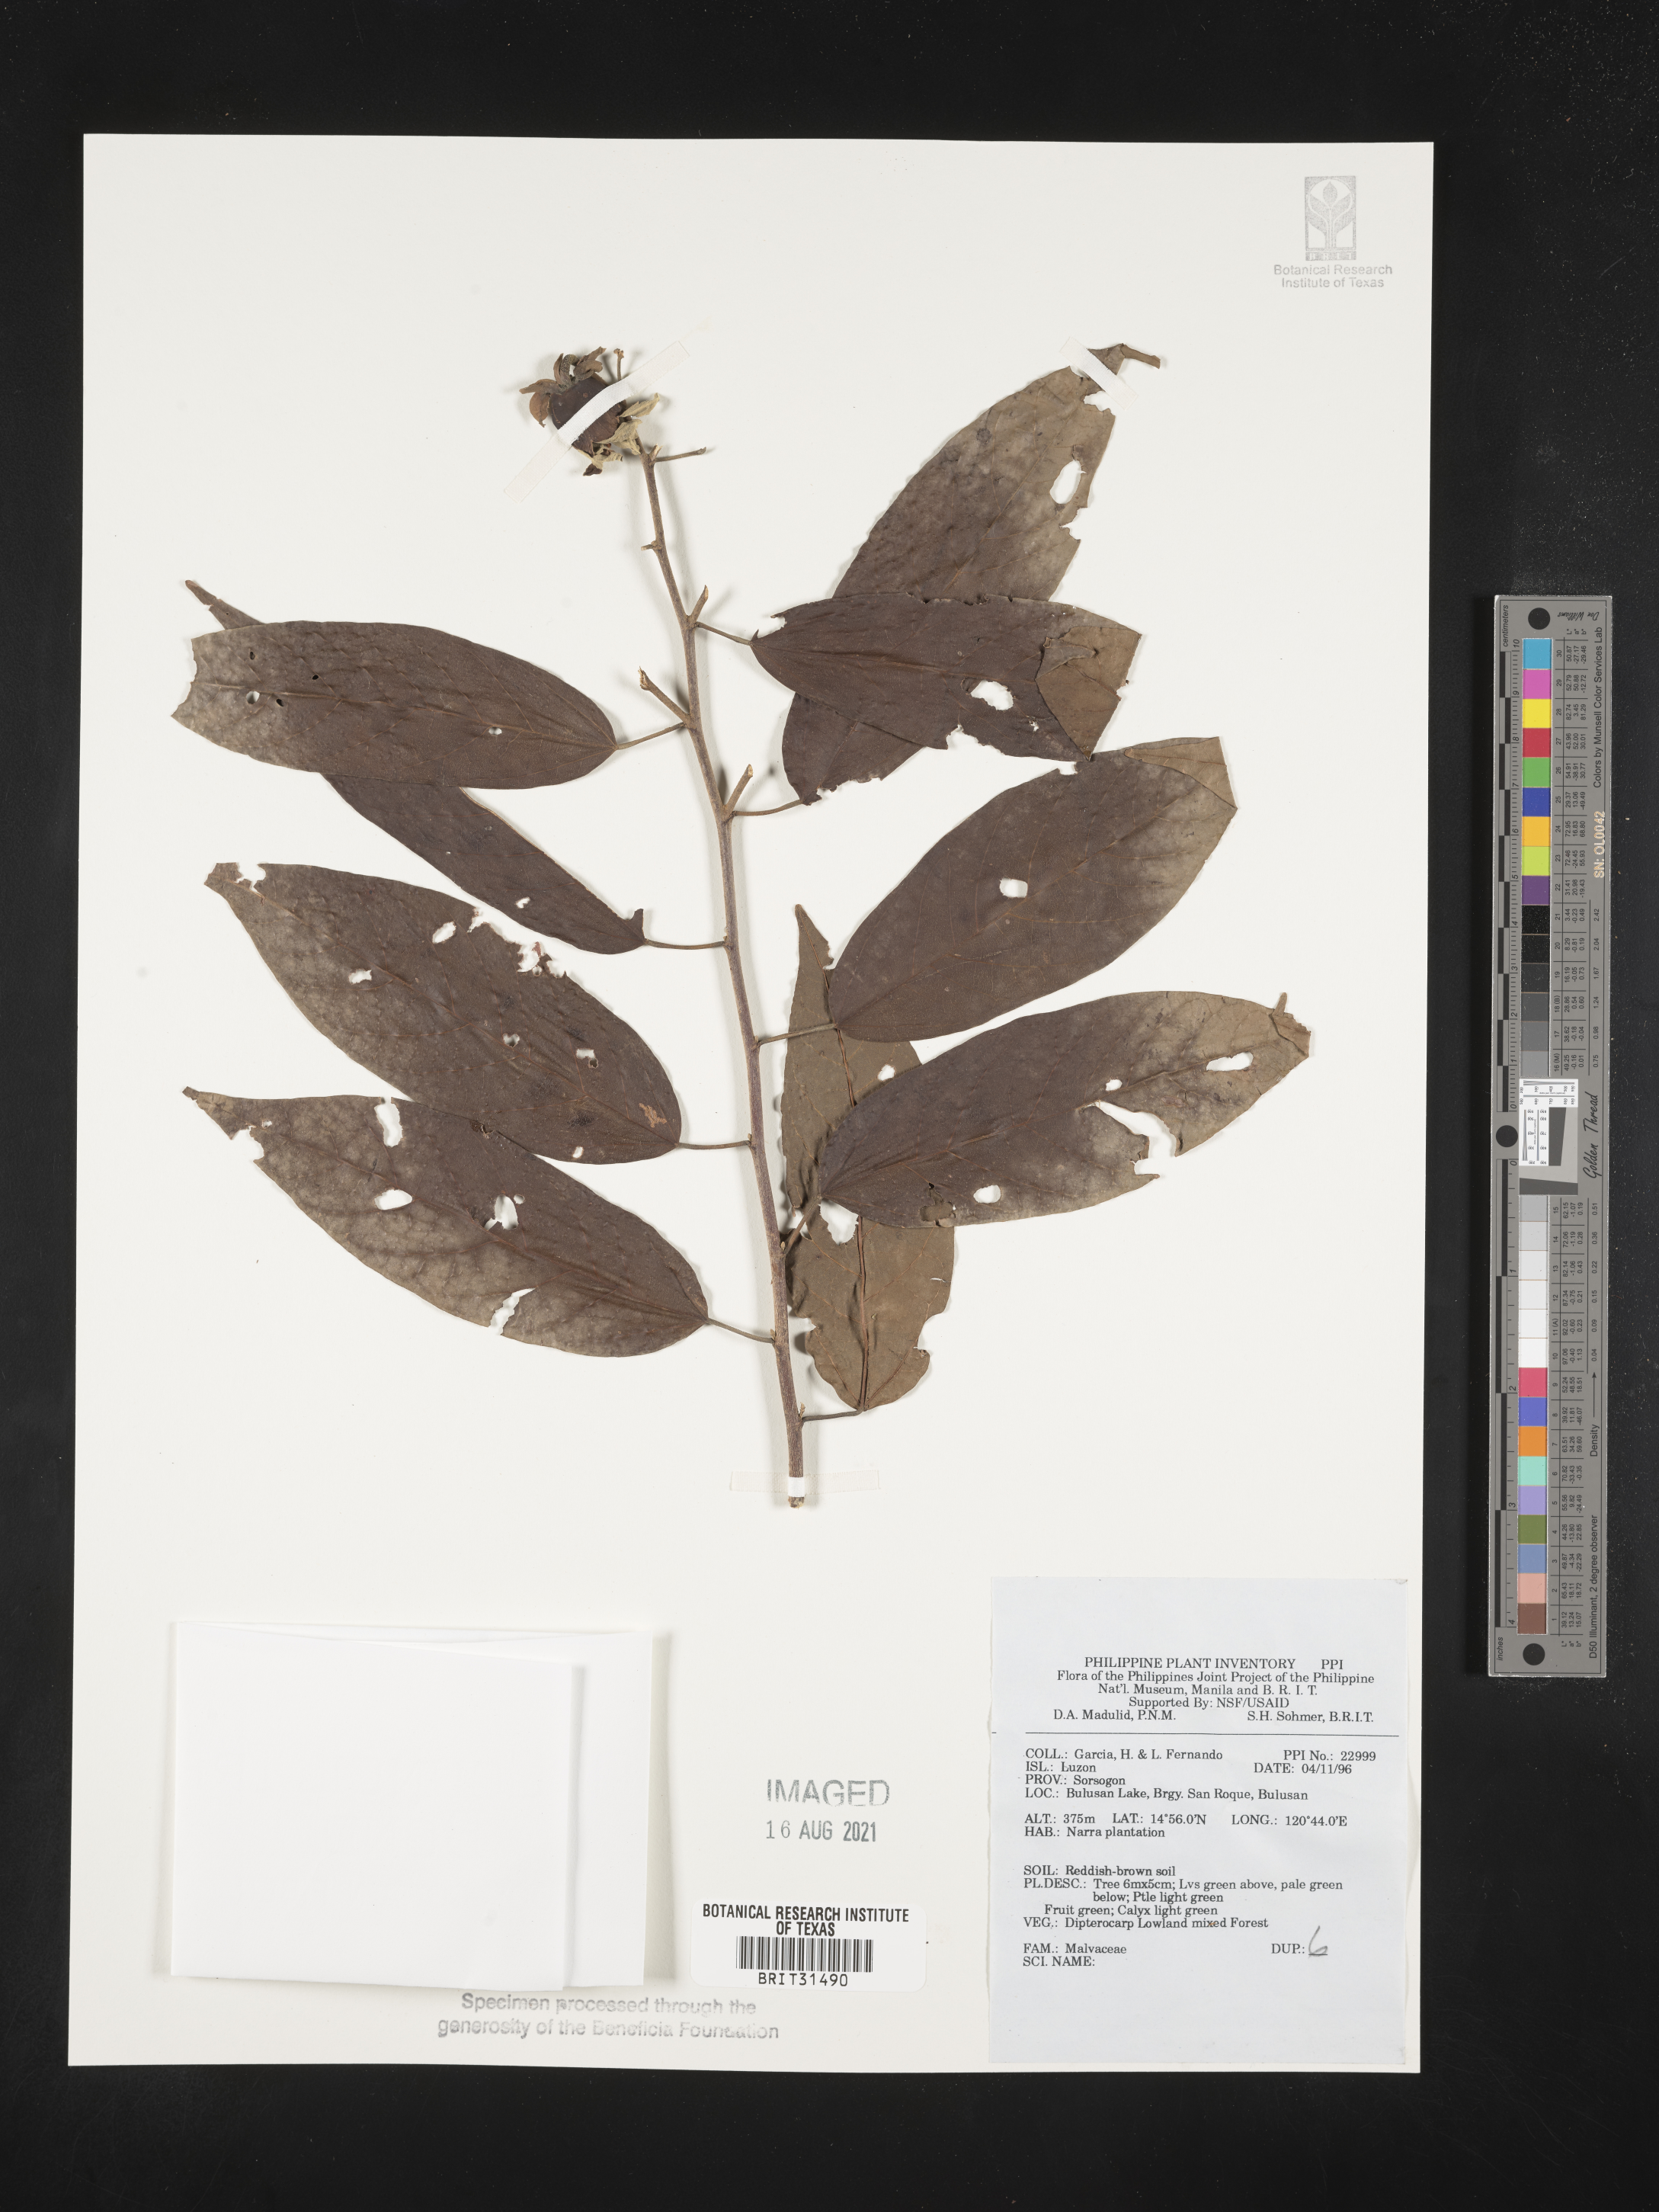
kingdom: Plantae
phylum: Tracheophyta
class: Magnoliopsida
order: Malvales
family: Malvaceae
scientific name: Malvaceae
